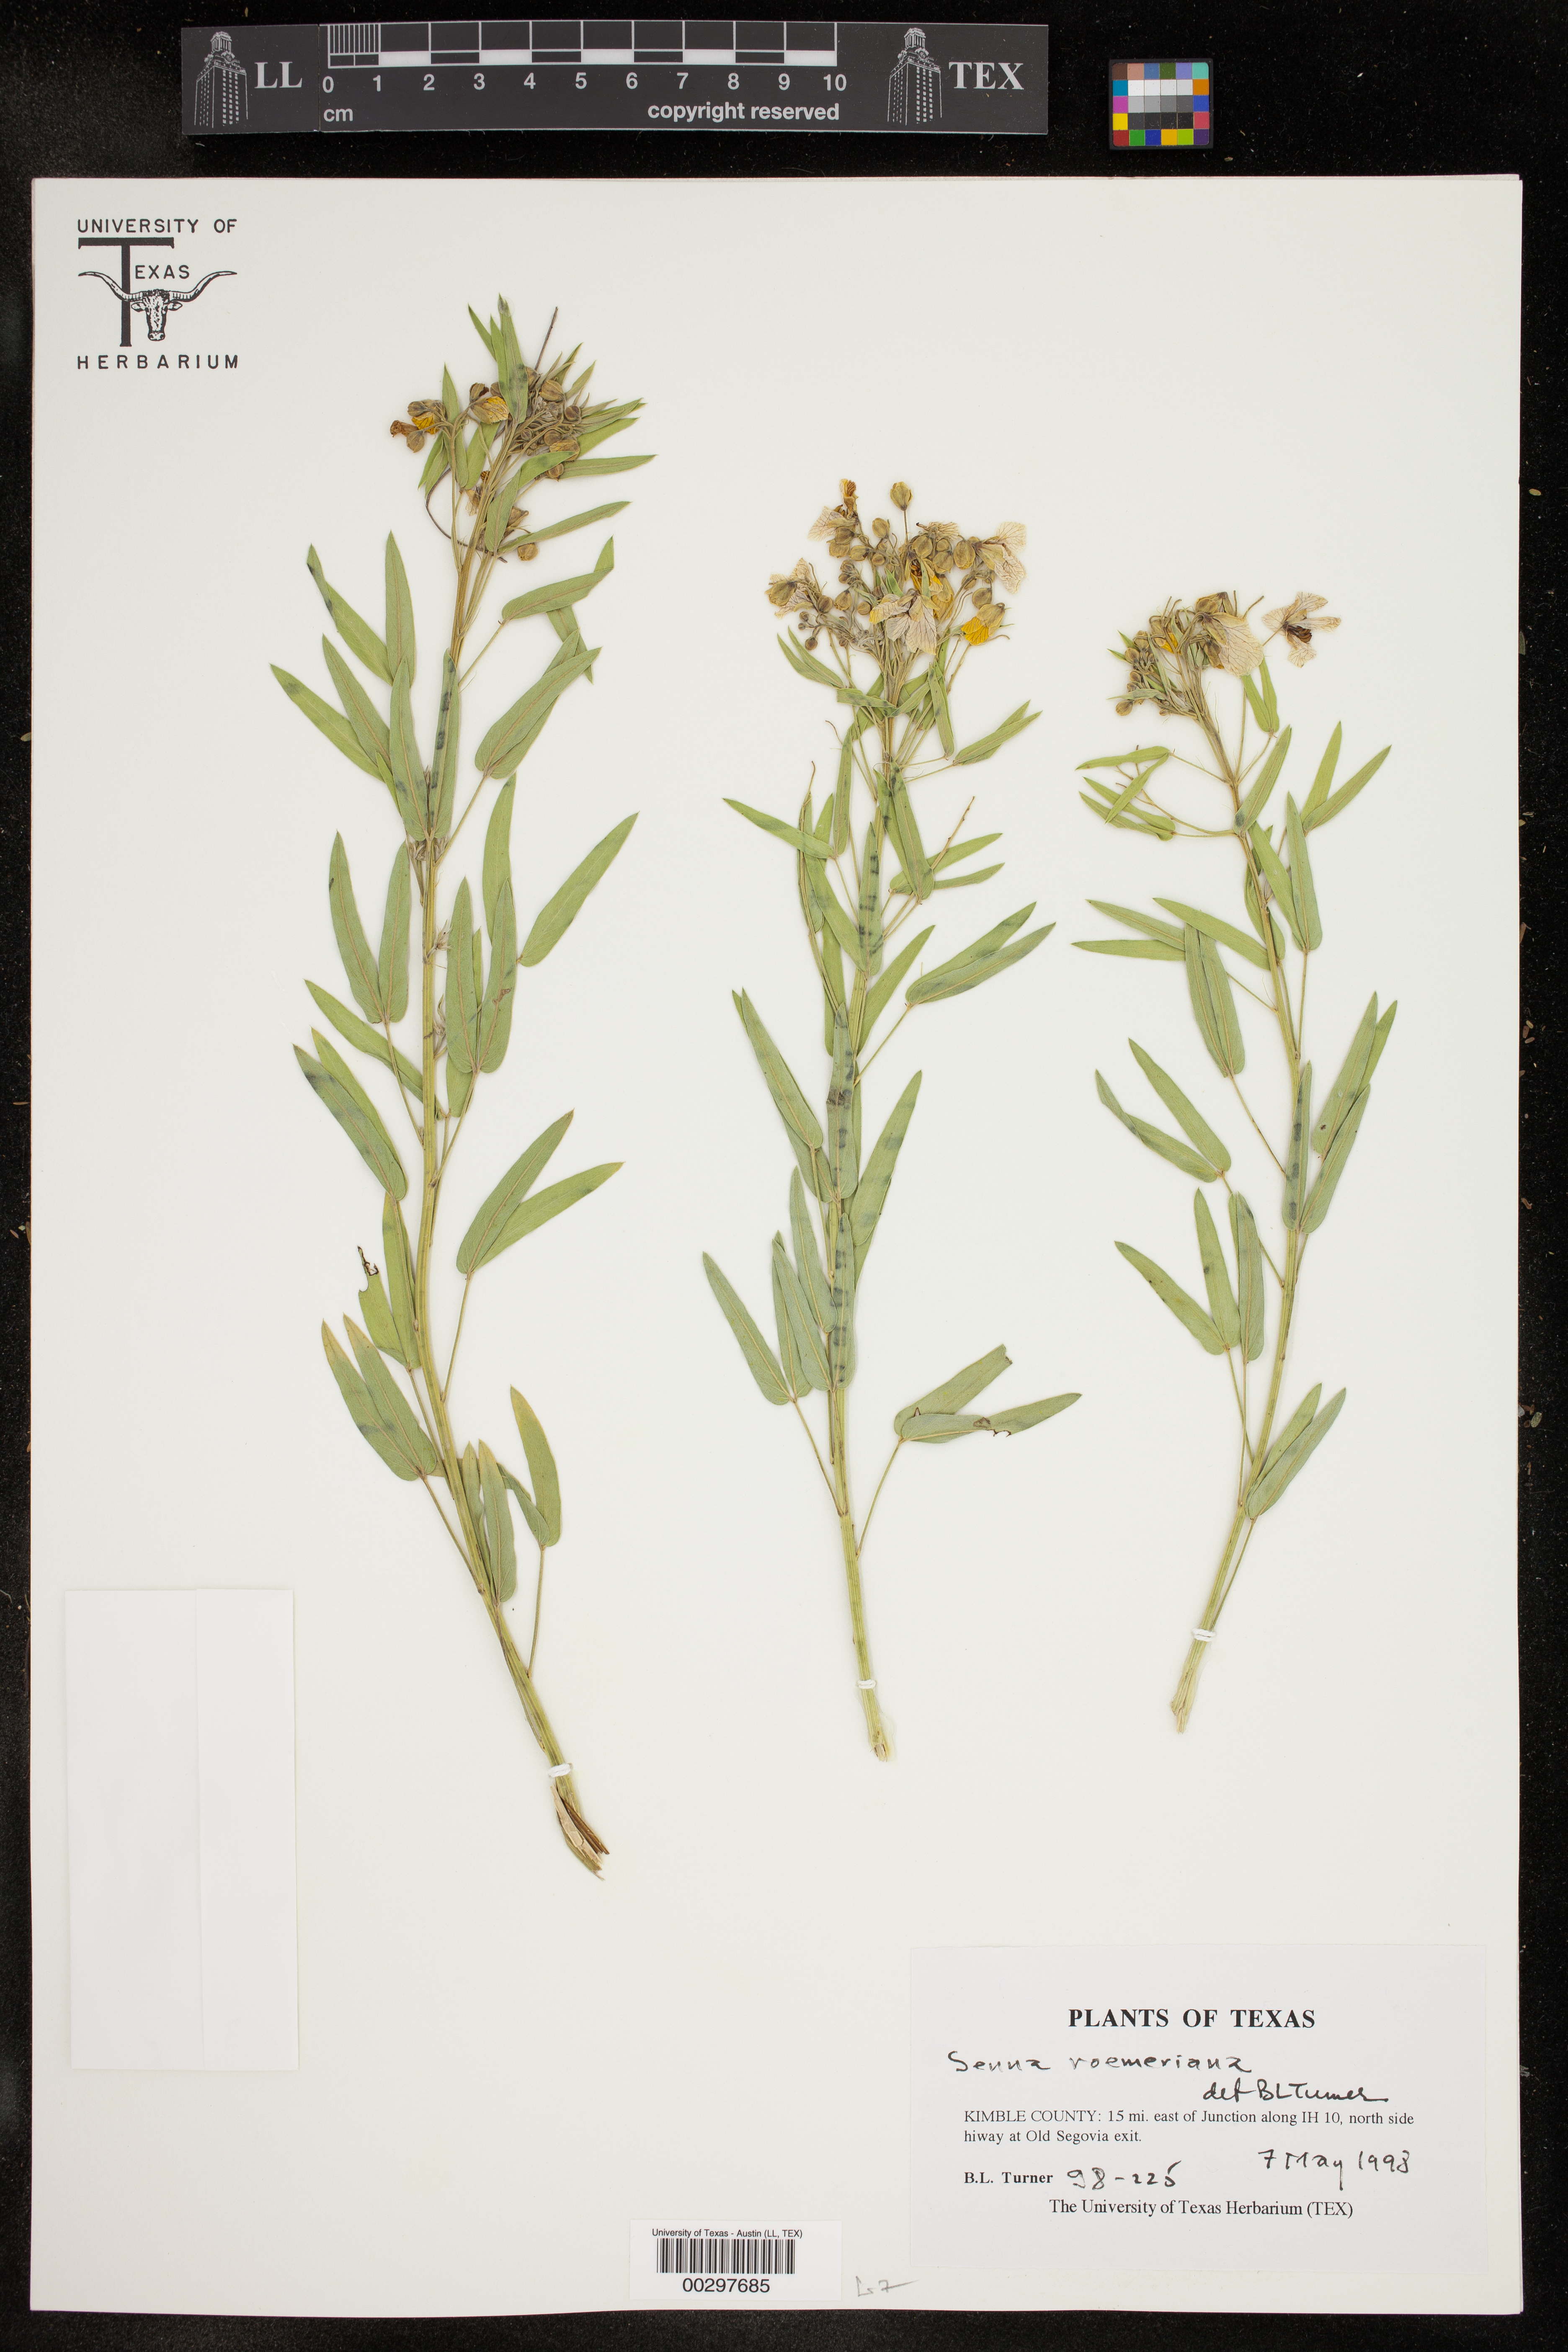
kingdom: Plantae
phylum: Tracheophyta
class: Magnoliopsida
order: Fabales
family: Fabaceae
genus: Senna
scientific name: Senna roemeriana
